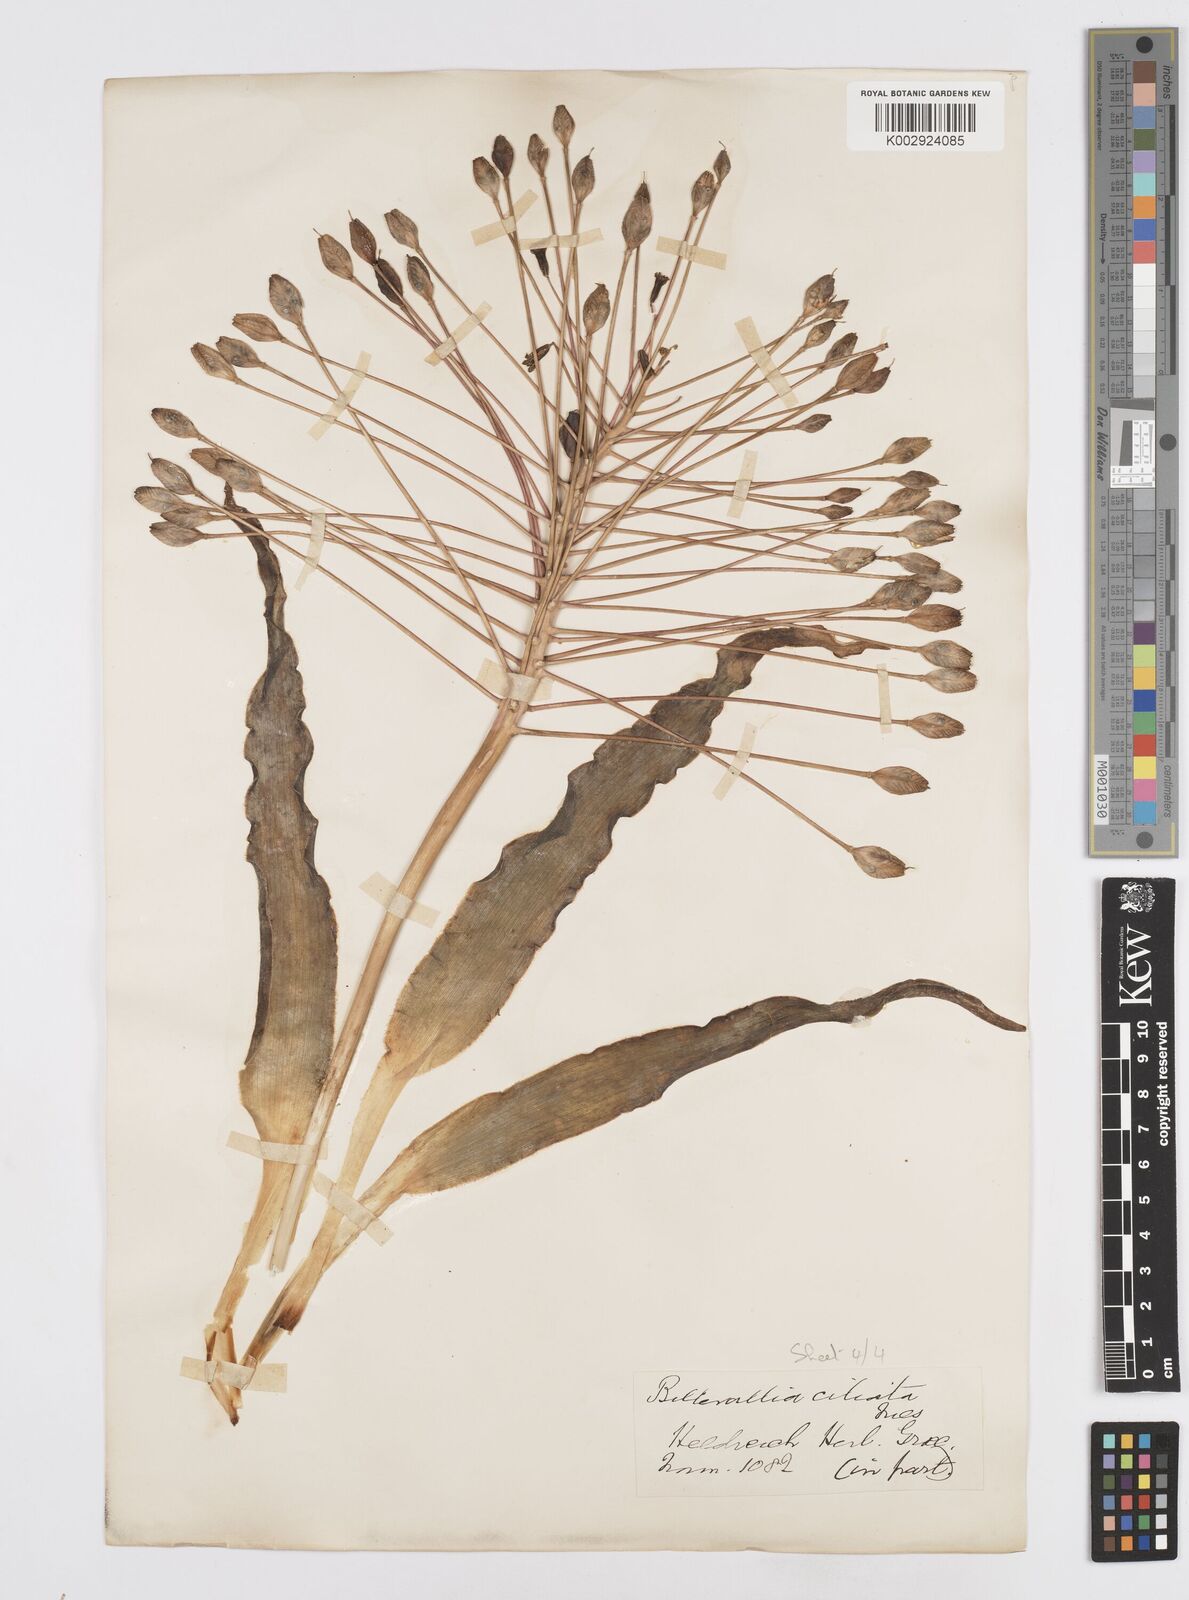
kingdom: Plantae
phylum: Tracheophyta
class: Liliopsida
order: Asparagales
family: Asparagaceae
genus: Bellevalia
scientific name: Bellevalia ciliata
